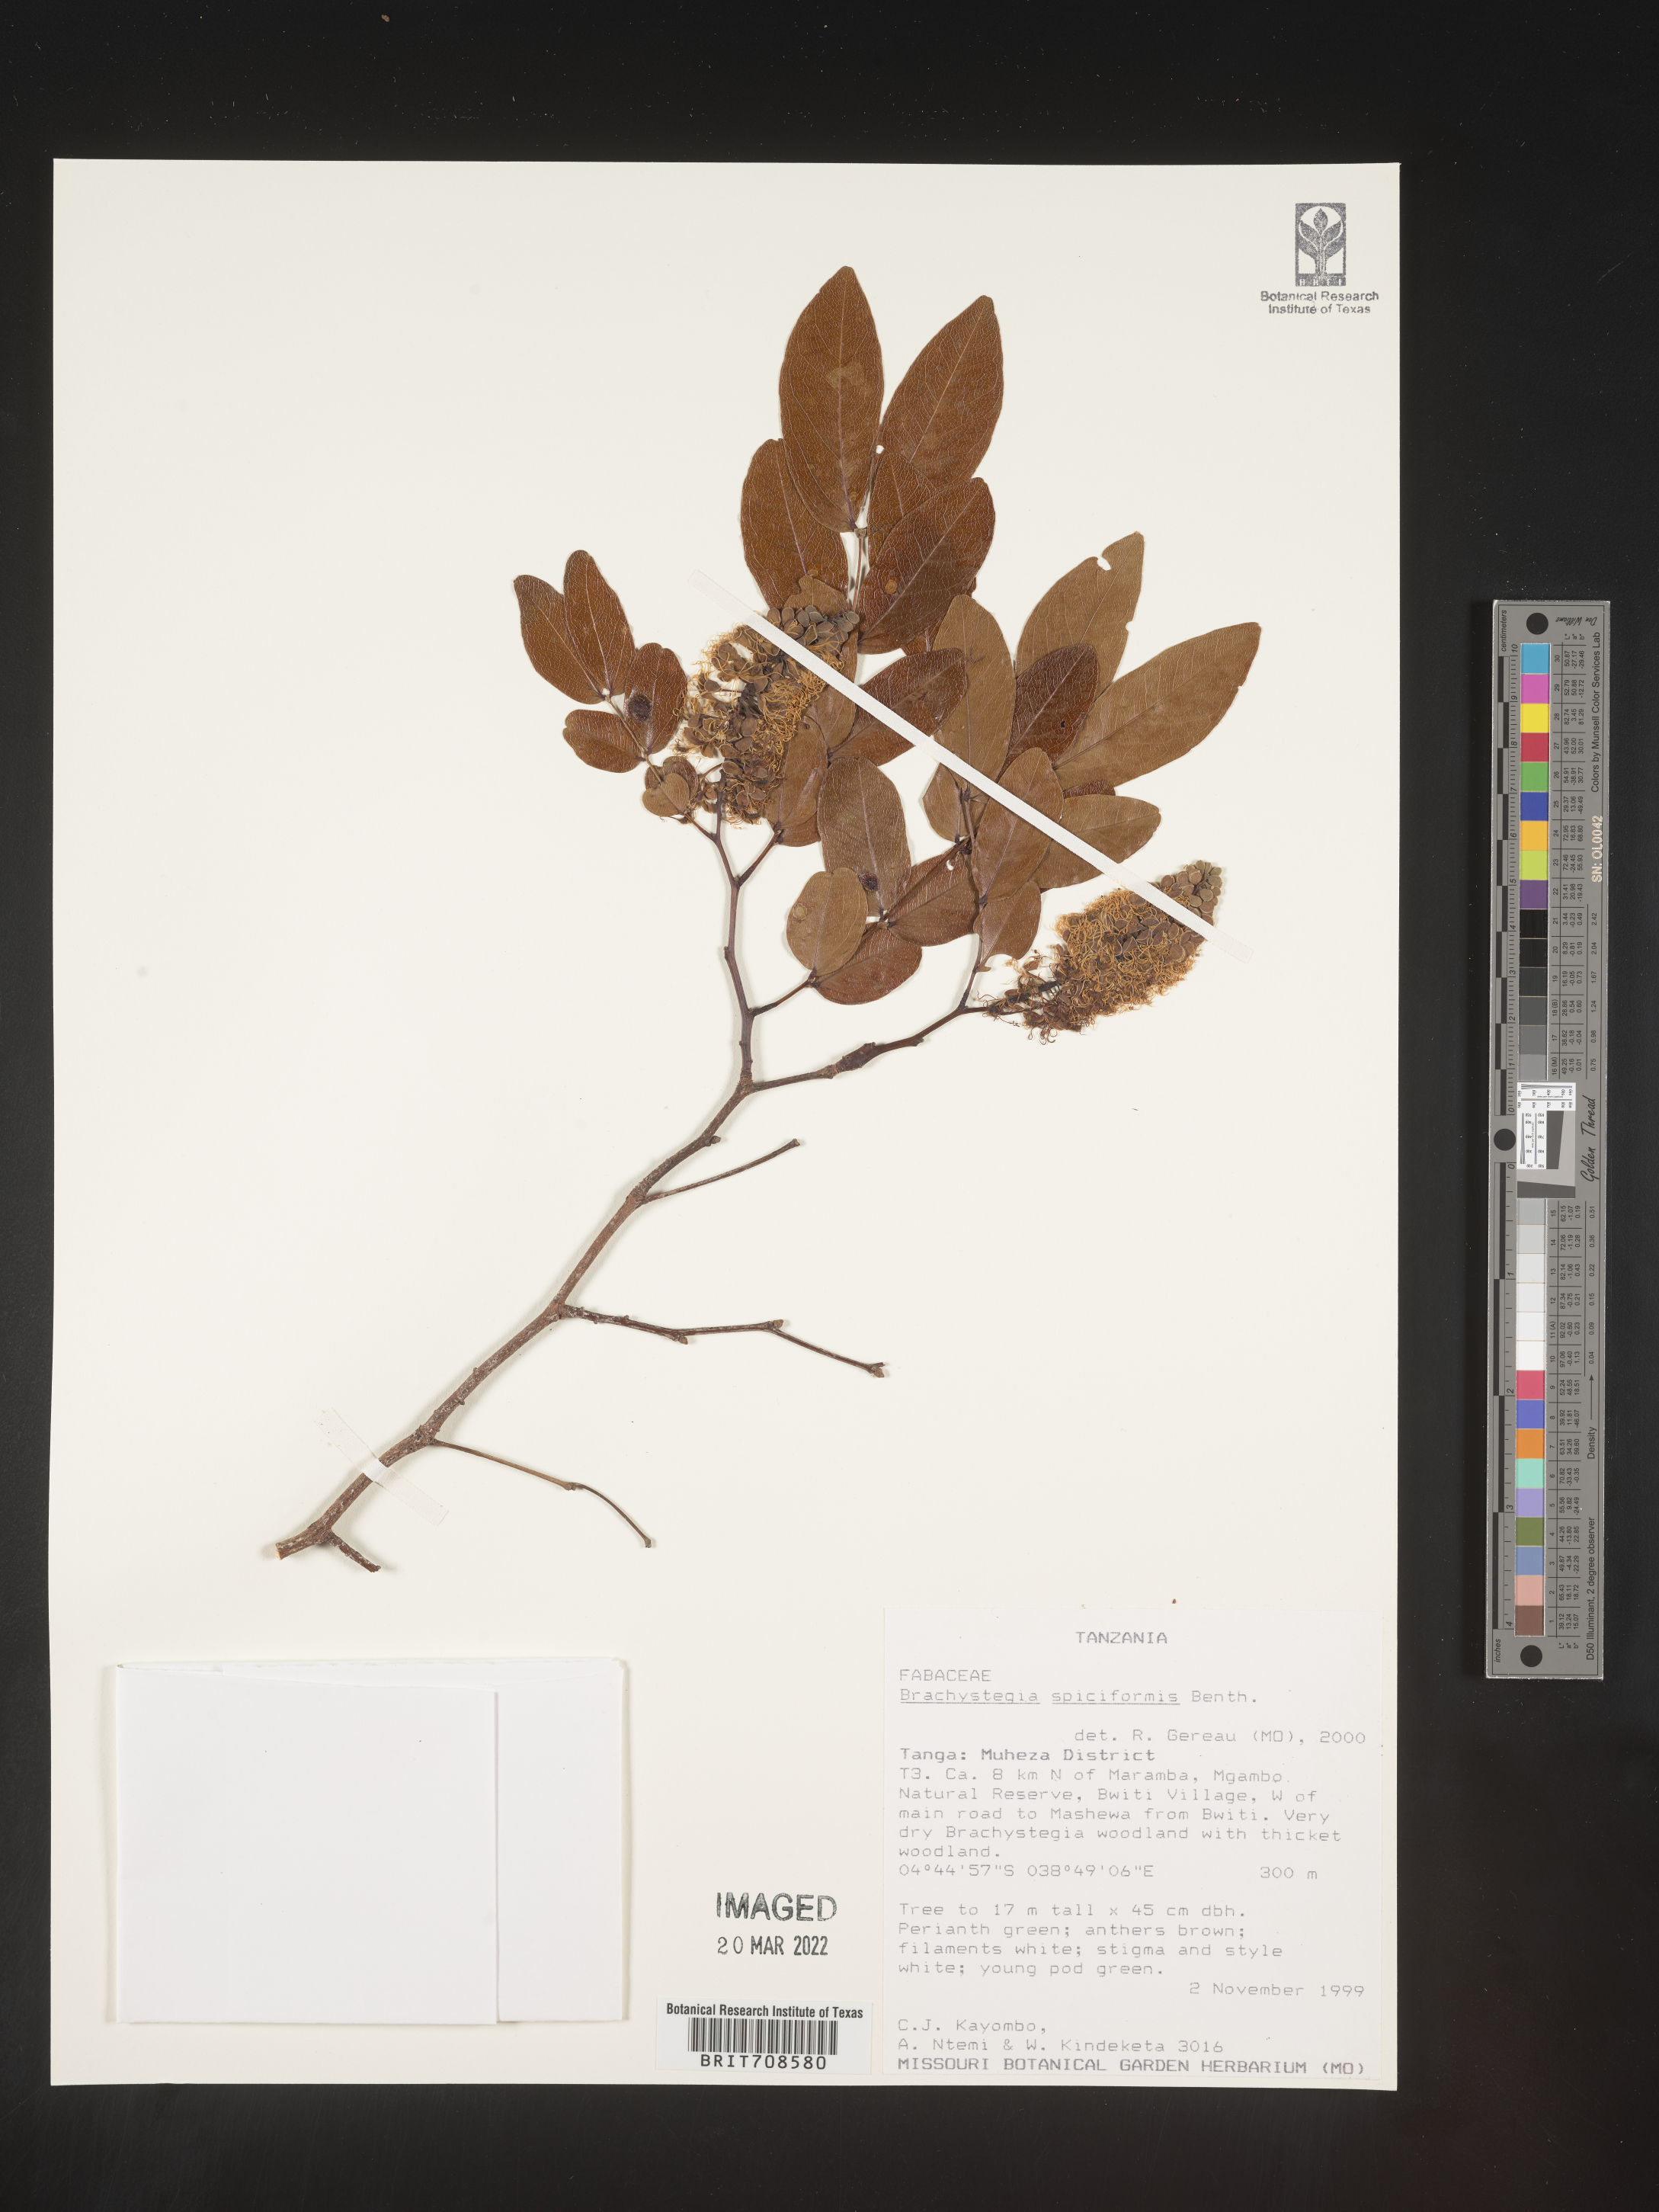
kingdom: Plantae
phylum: Tracheophyta
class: Magnoliopsida
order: Fabales
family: Fabaceae
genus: Brachystegia
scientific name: Brachystegia
